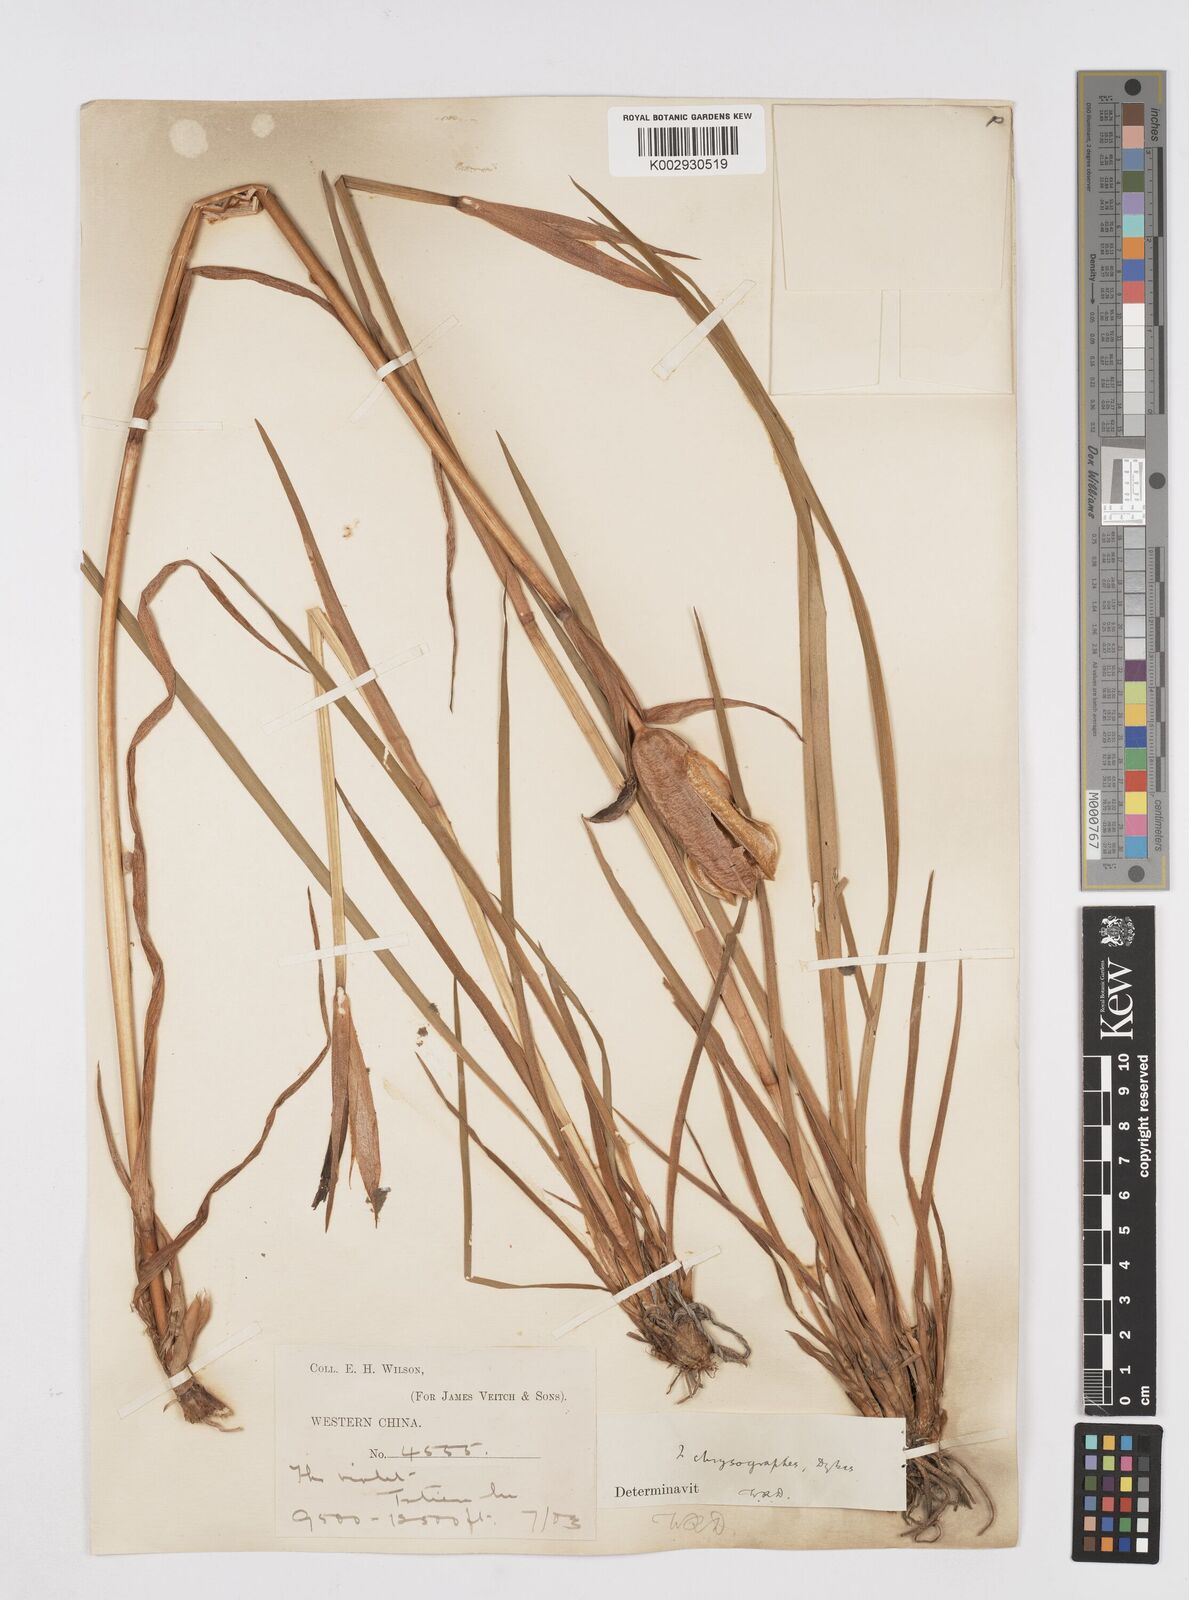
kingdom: Plantae
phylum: Tracheophyta
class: Liliopsida
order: Asparagales
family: Iridaceae
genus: Iris
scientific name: Iris chrysographes
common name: Gold-vein iris
